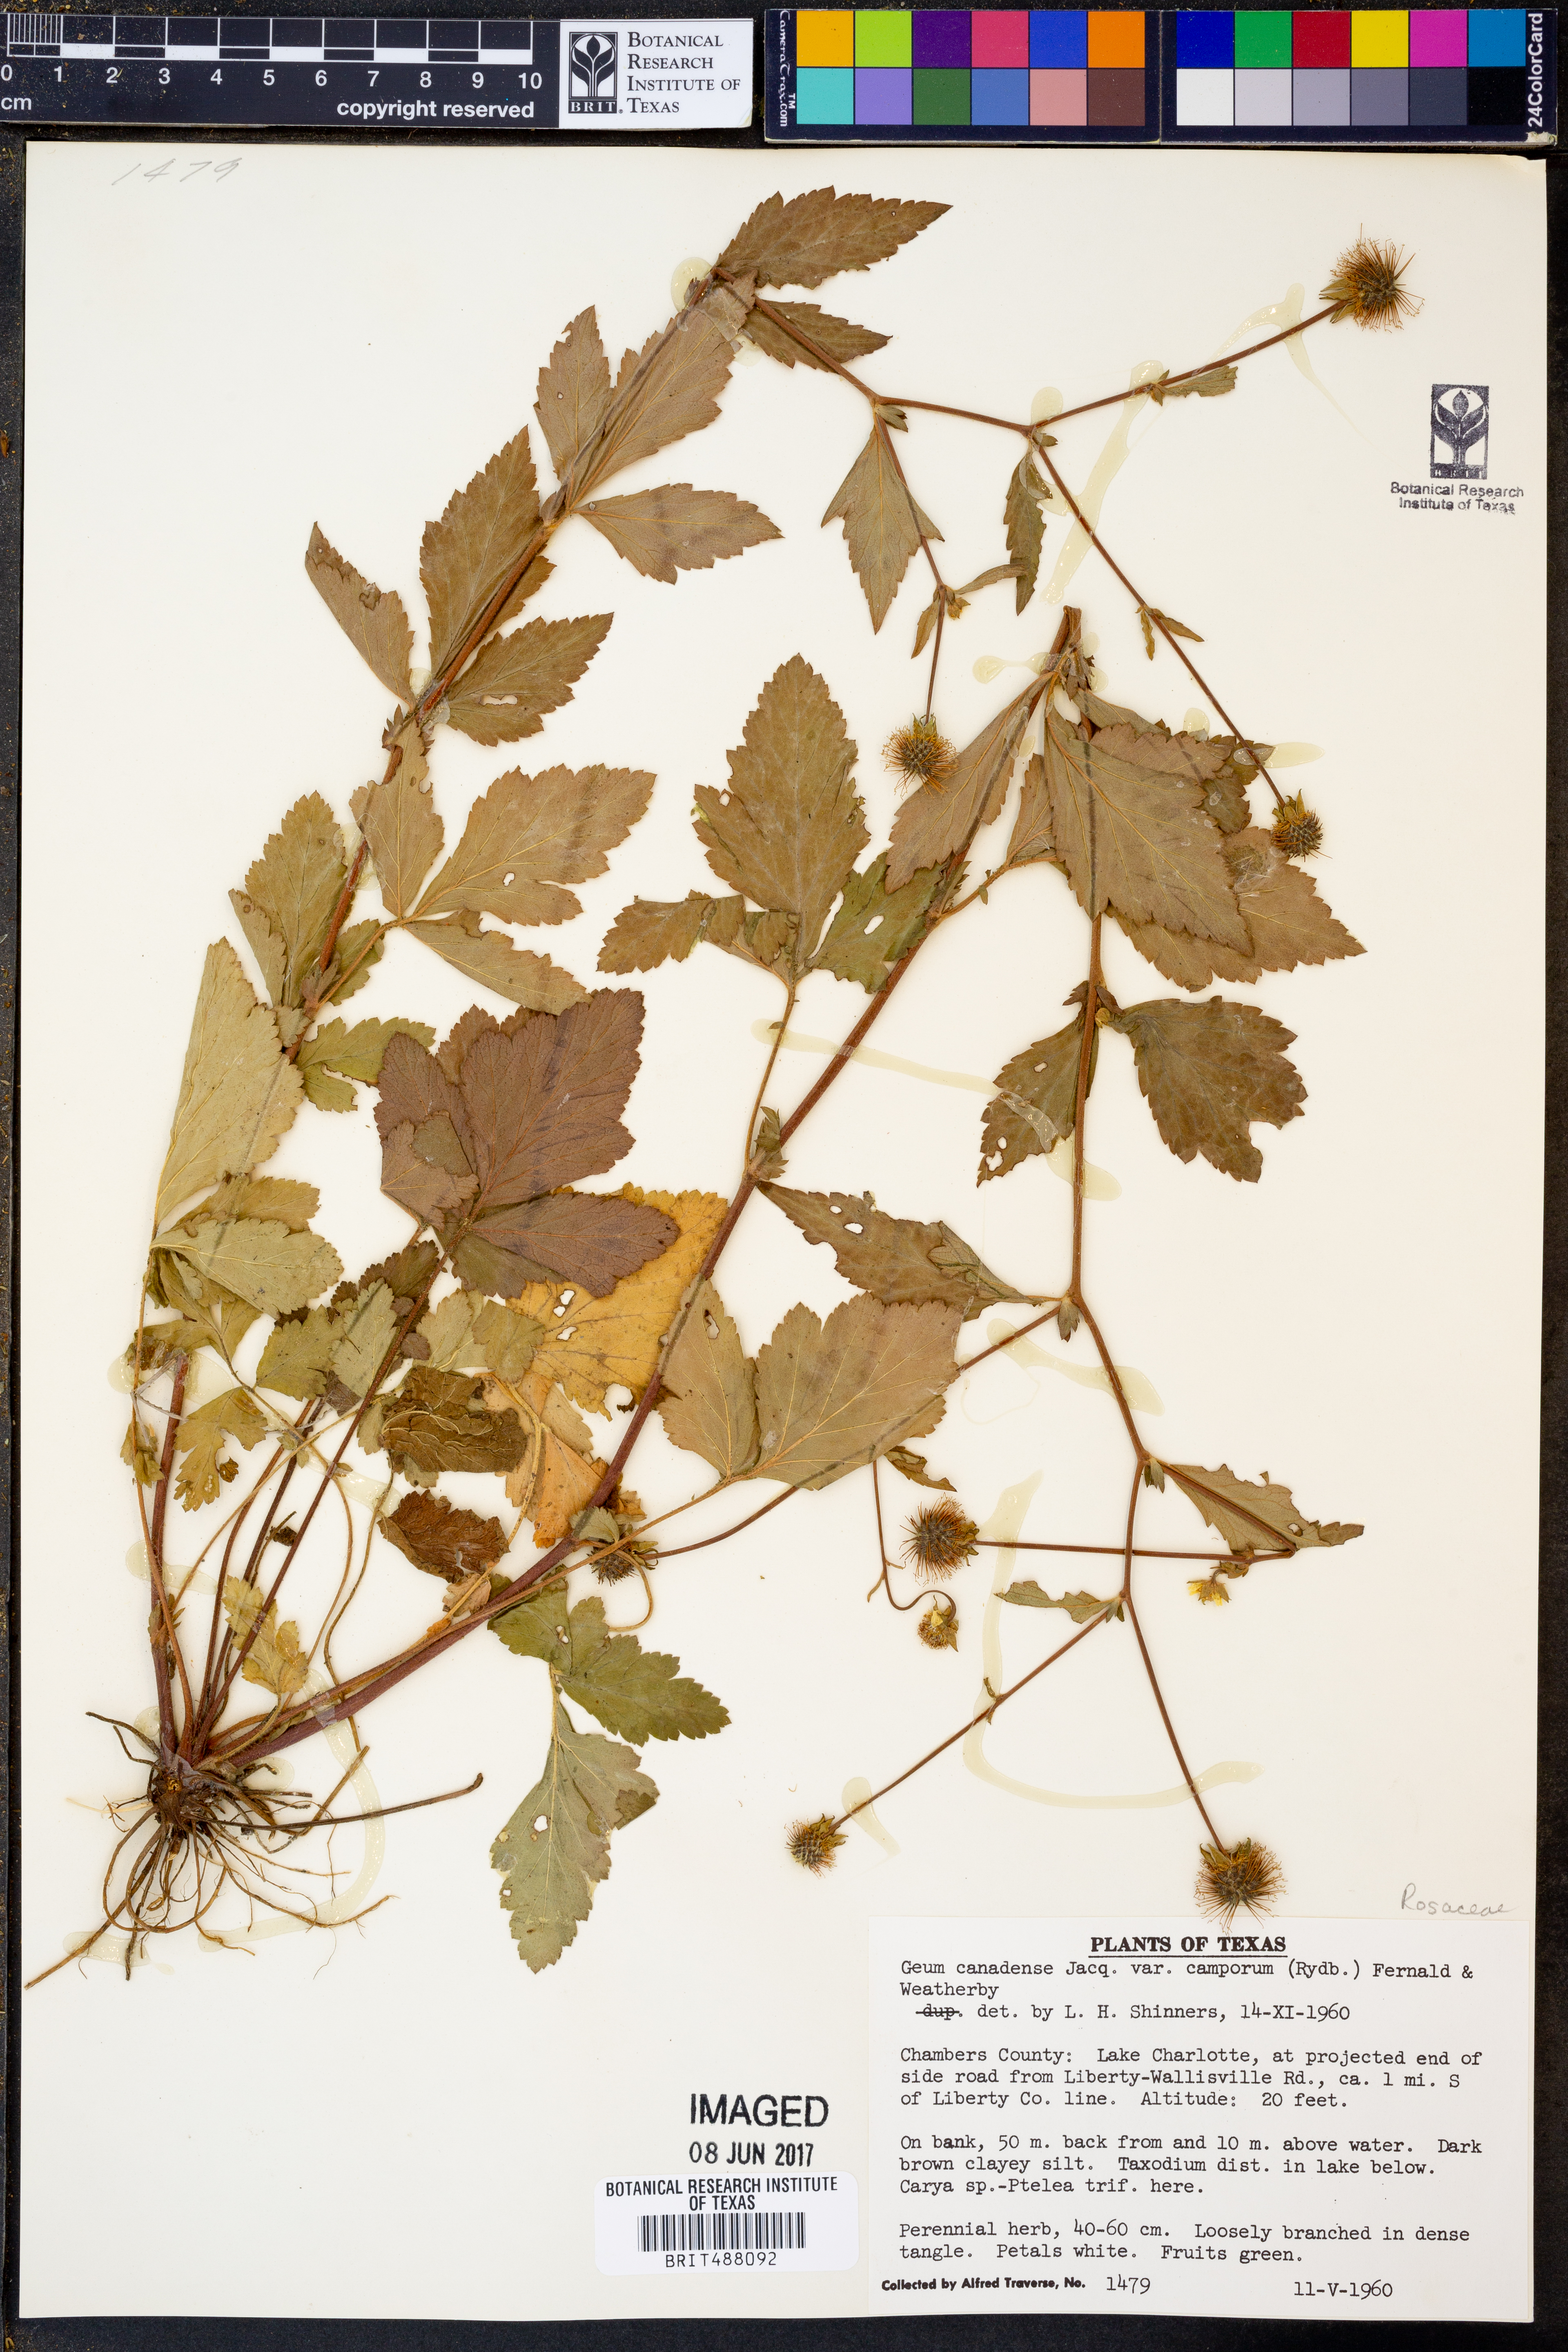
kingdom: Plantae
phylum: Tracheophyta
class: Magnoliopsida
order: Rosales
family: Rosaceae
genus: Geum
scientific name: Geum canadense
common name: White avens
